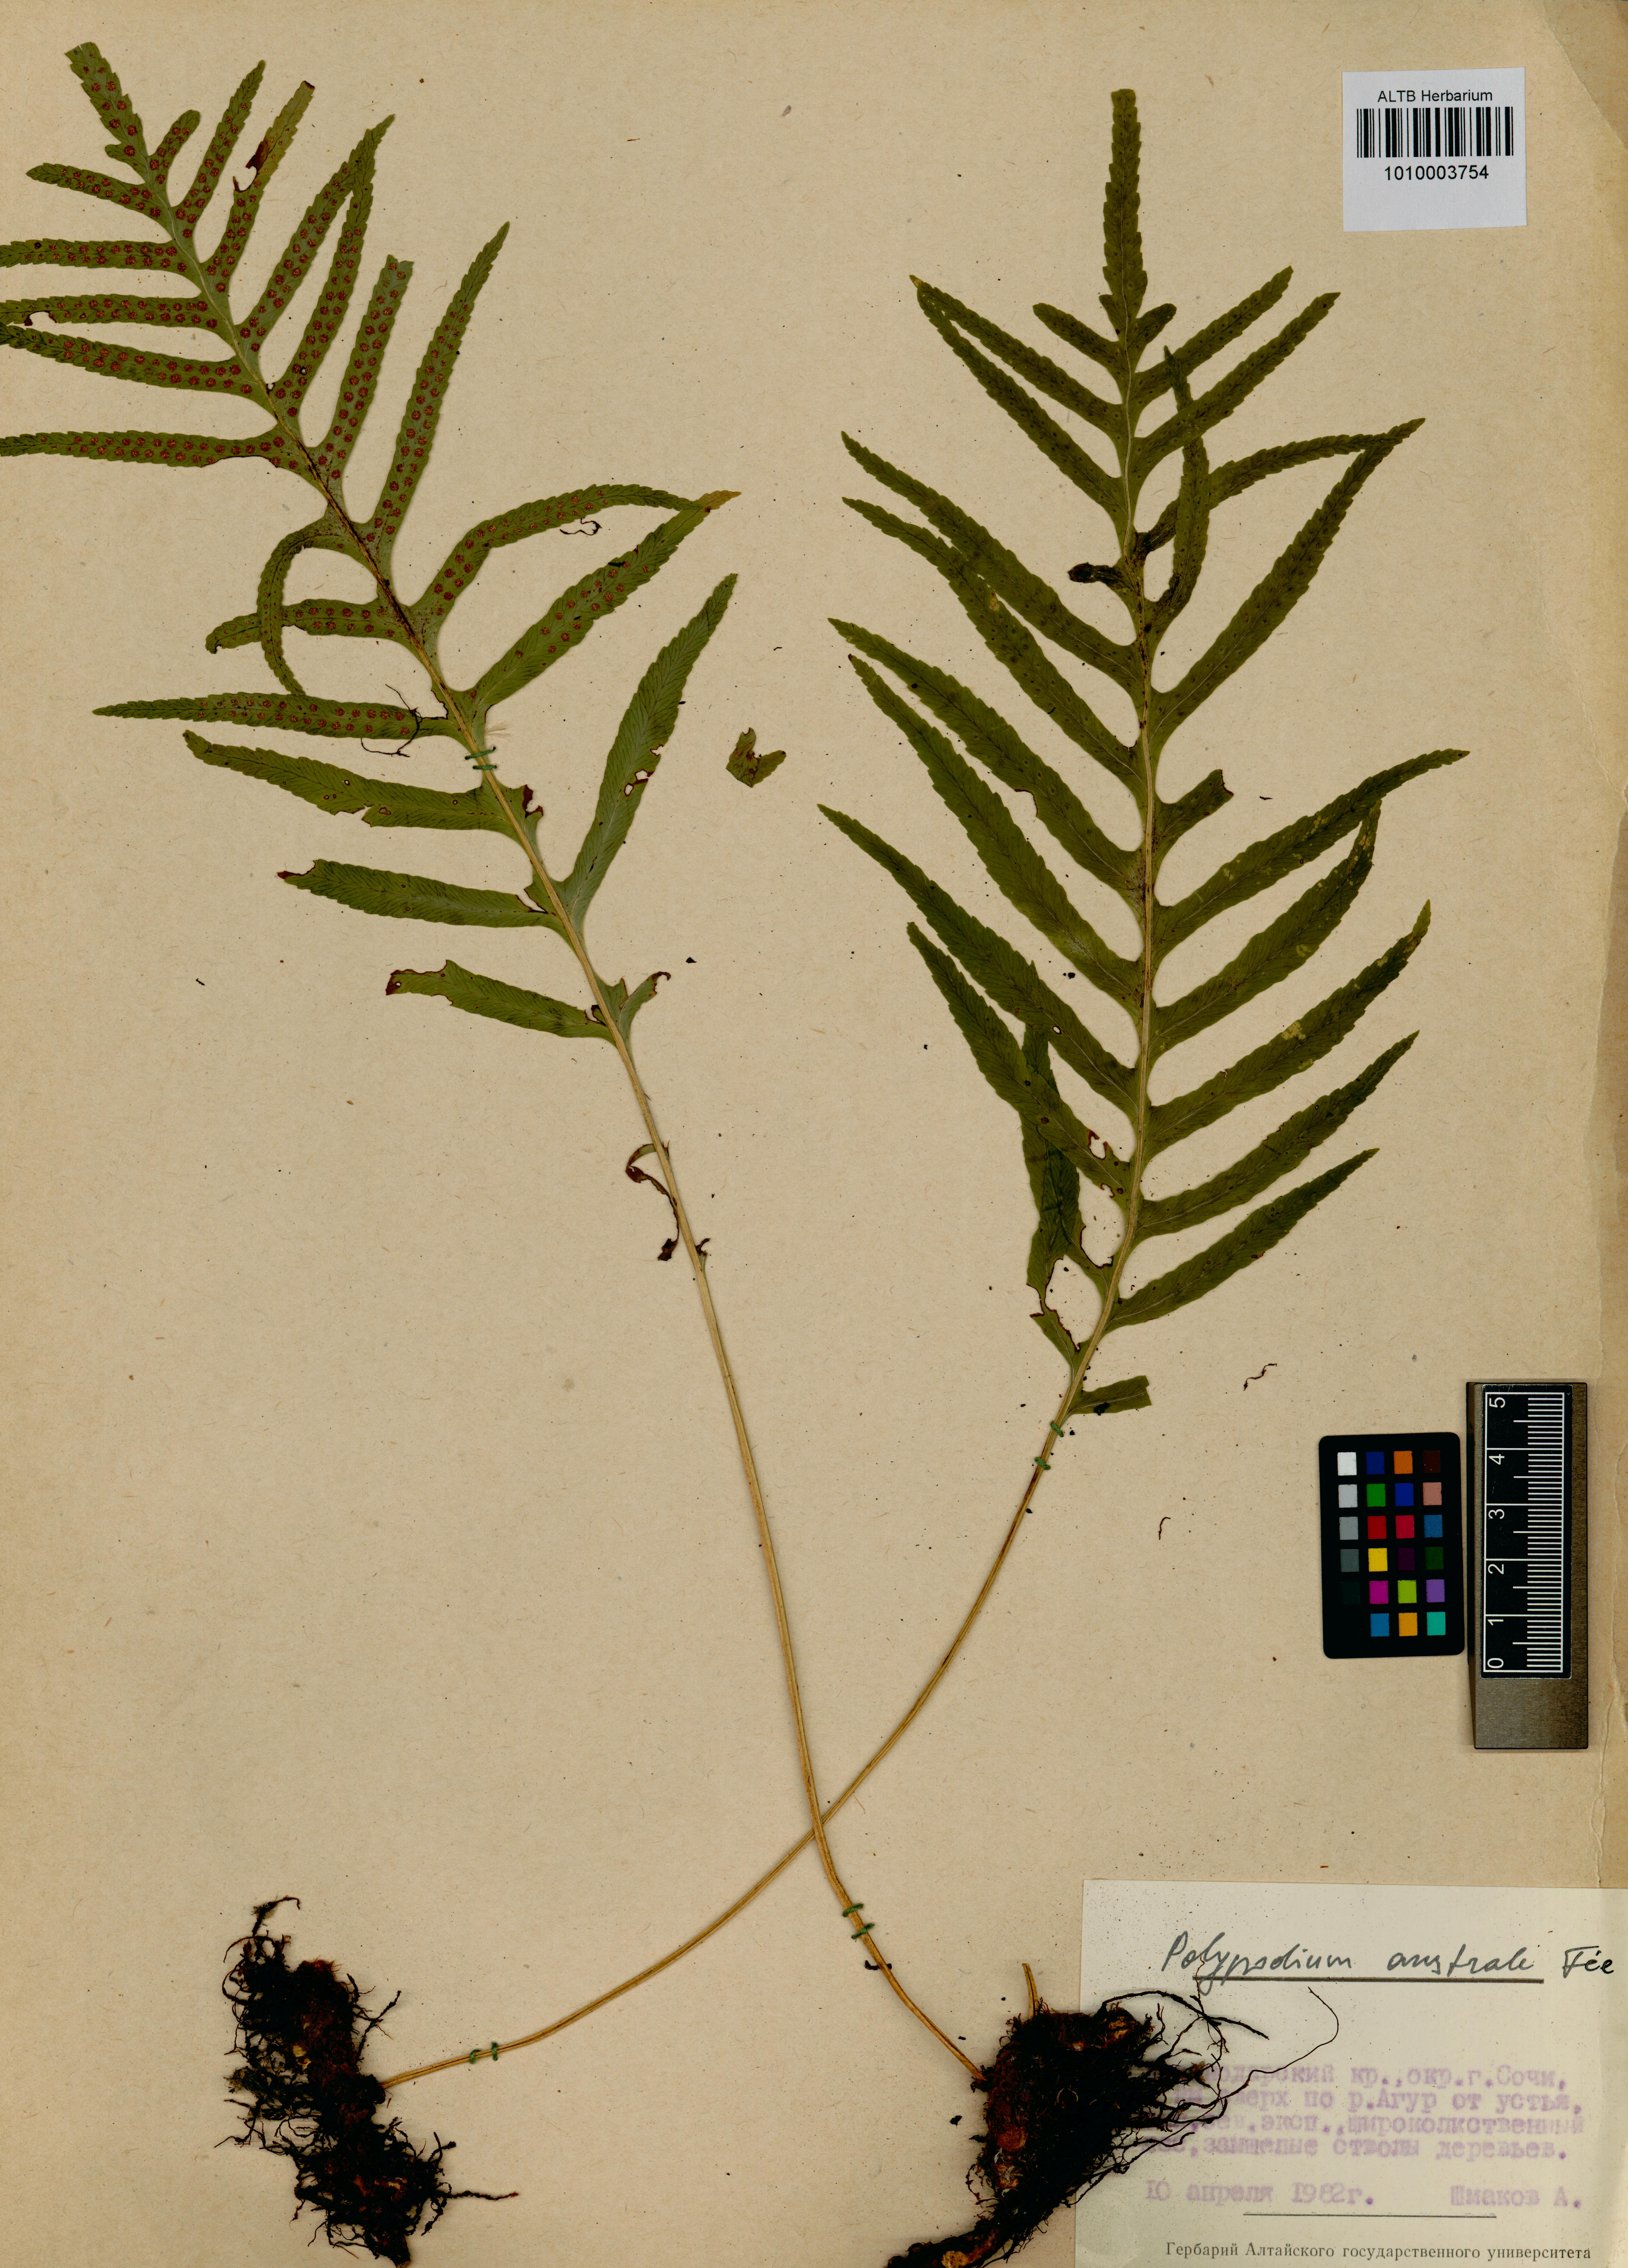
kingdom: Plantae
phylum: Tracheophyta
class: Polypodiopsida
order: Polypodiales
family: Polypodiaceae
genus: Polypodium
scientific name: Polypodium cambricum
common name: Southern polypody
